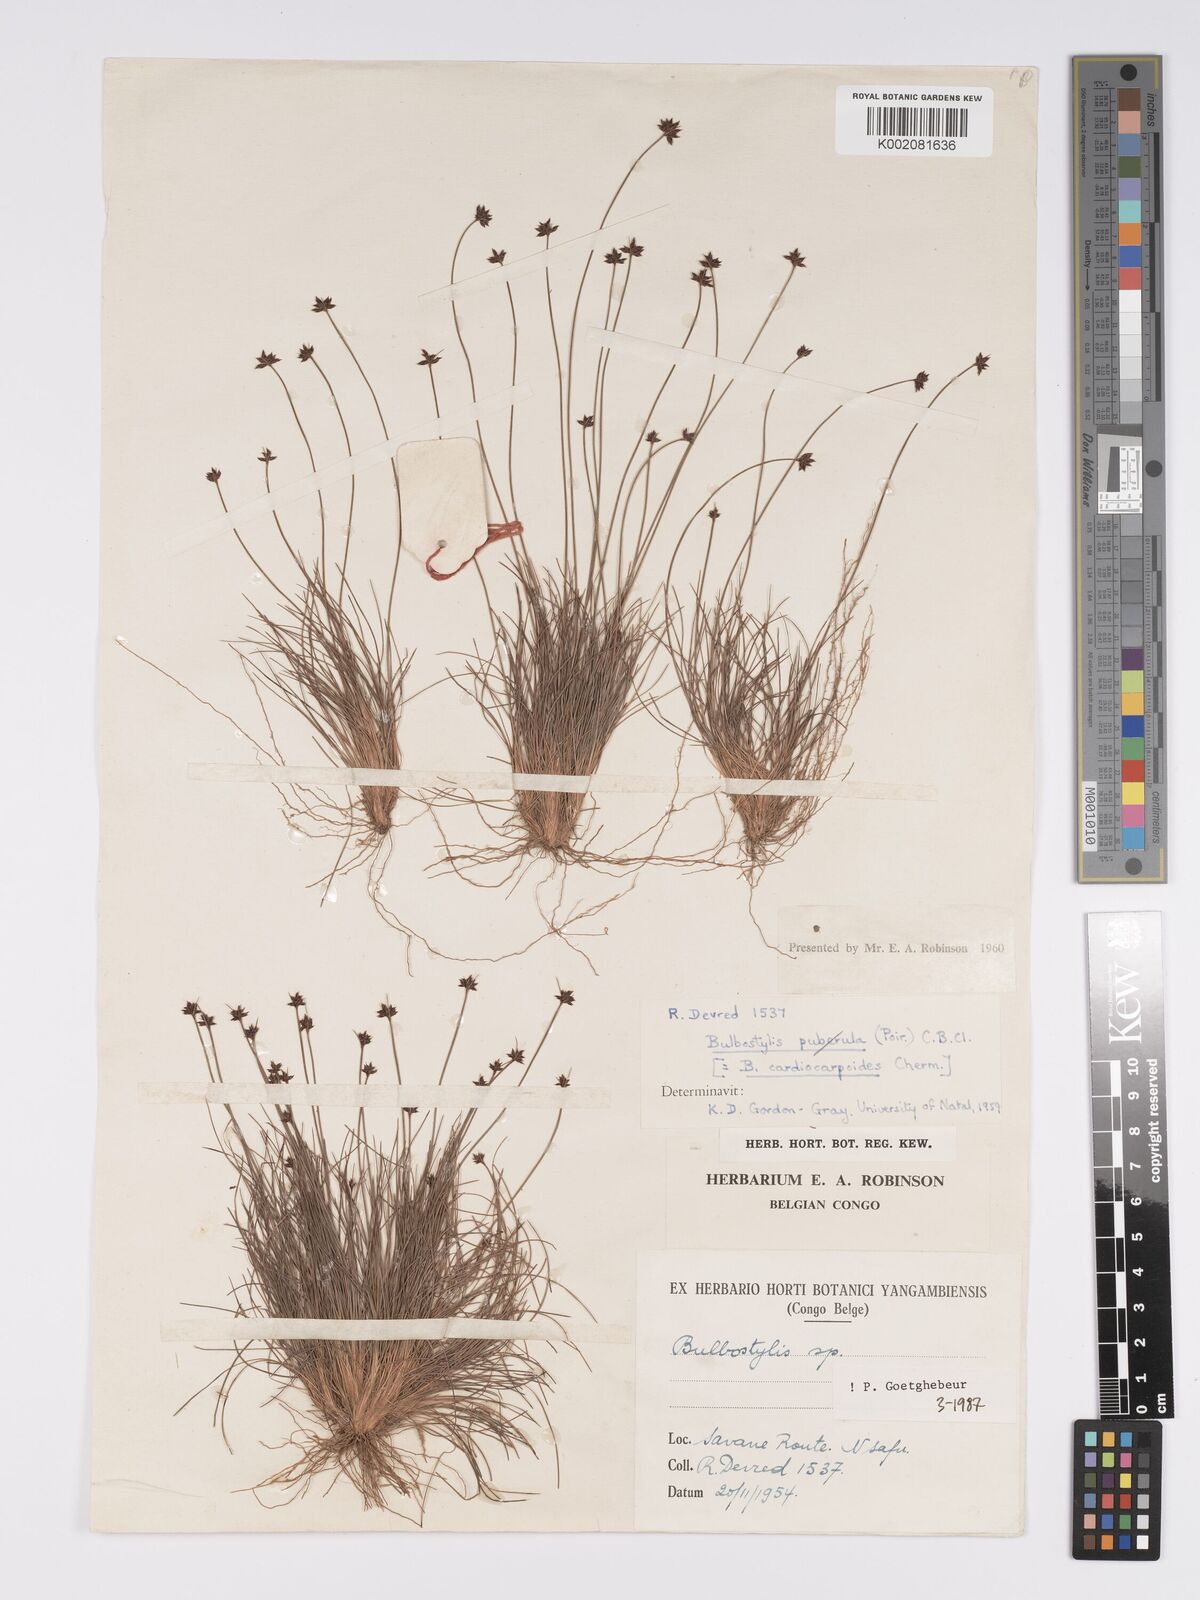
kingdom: Plantae
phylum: Tracheophyta
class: Liliopsida
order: Poales
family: Cyperaceae
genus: Bulbostylis
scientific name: Bulbostylis cardiocarpoides
